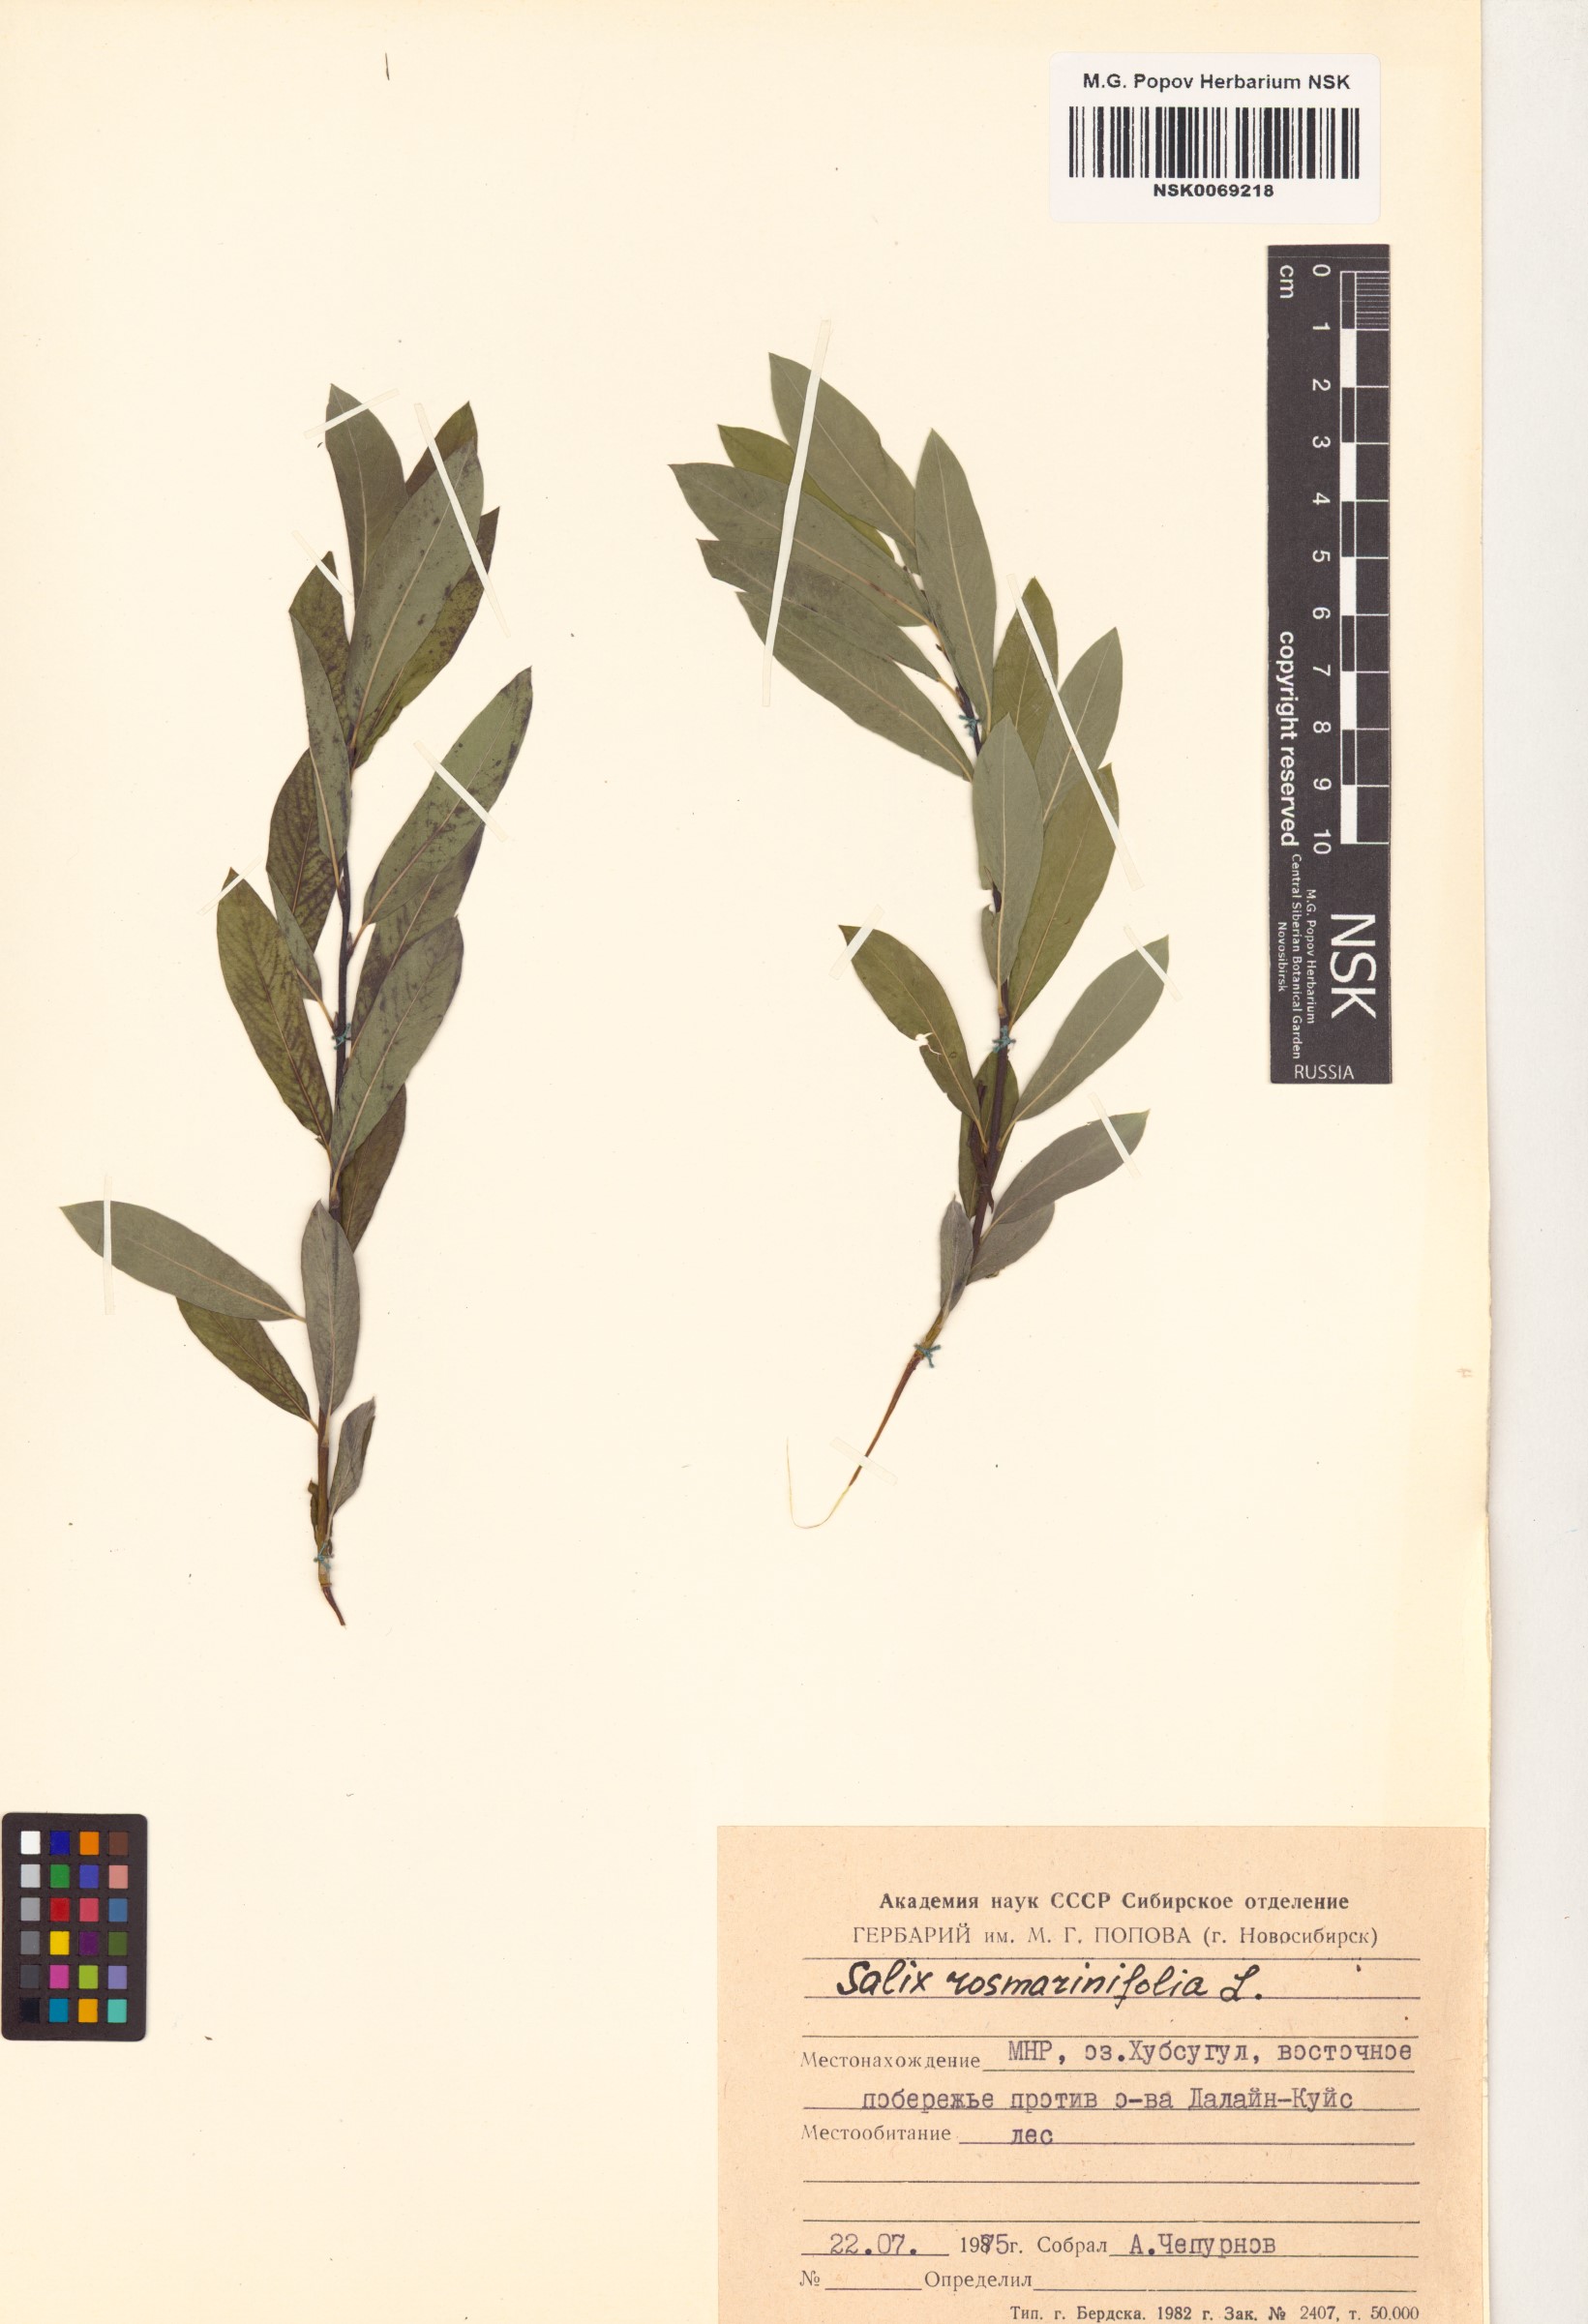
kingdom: Plantae
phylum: Tracheophyta
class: Magnoliopsida
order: Malpighiales
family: Salicaceae
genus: Salix
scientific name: Salix rosmarinifolia
